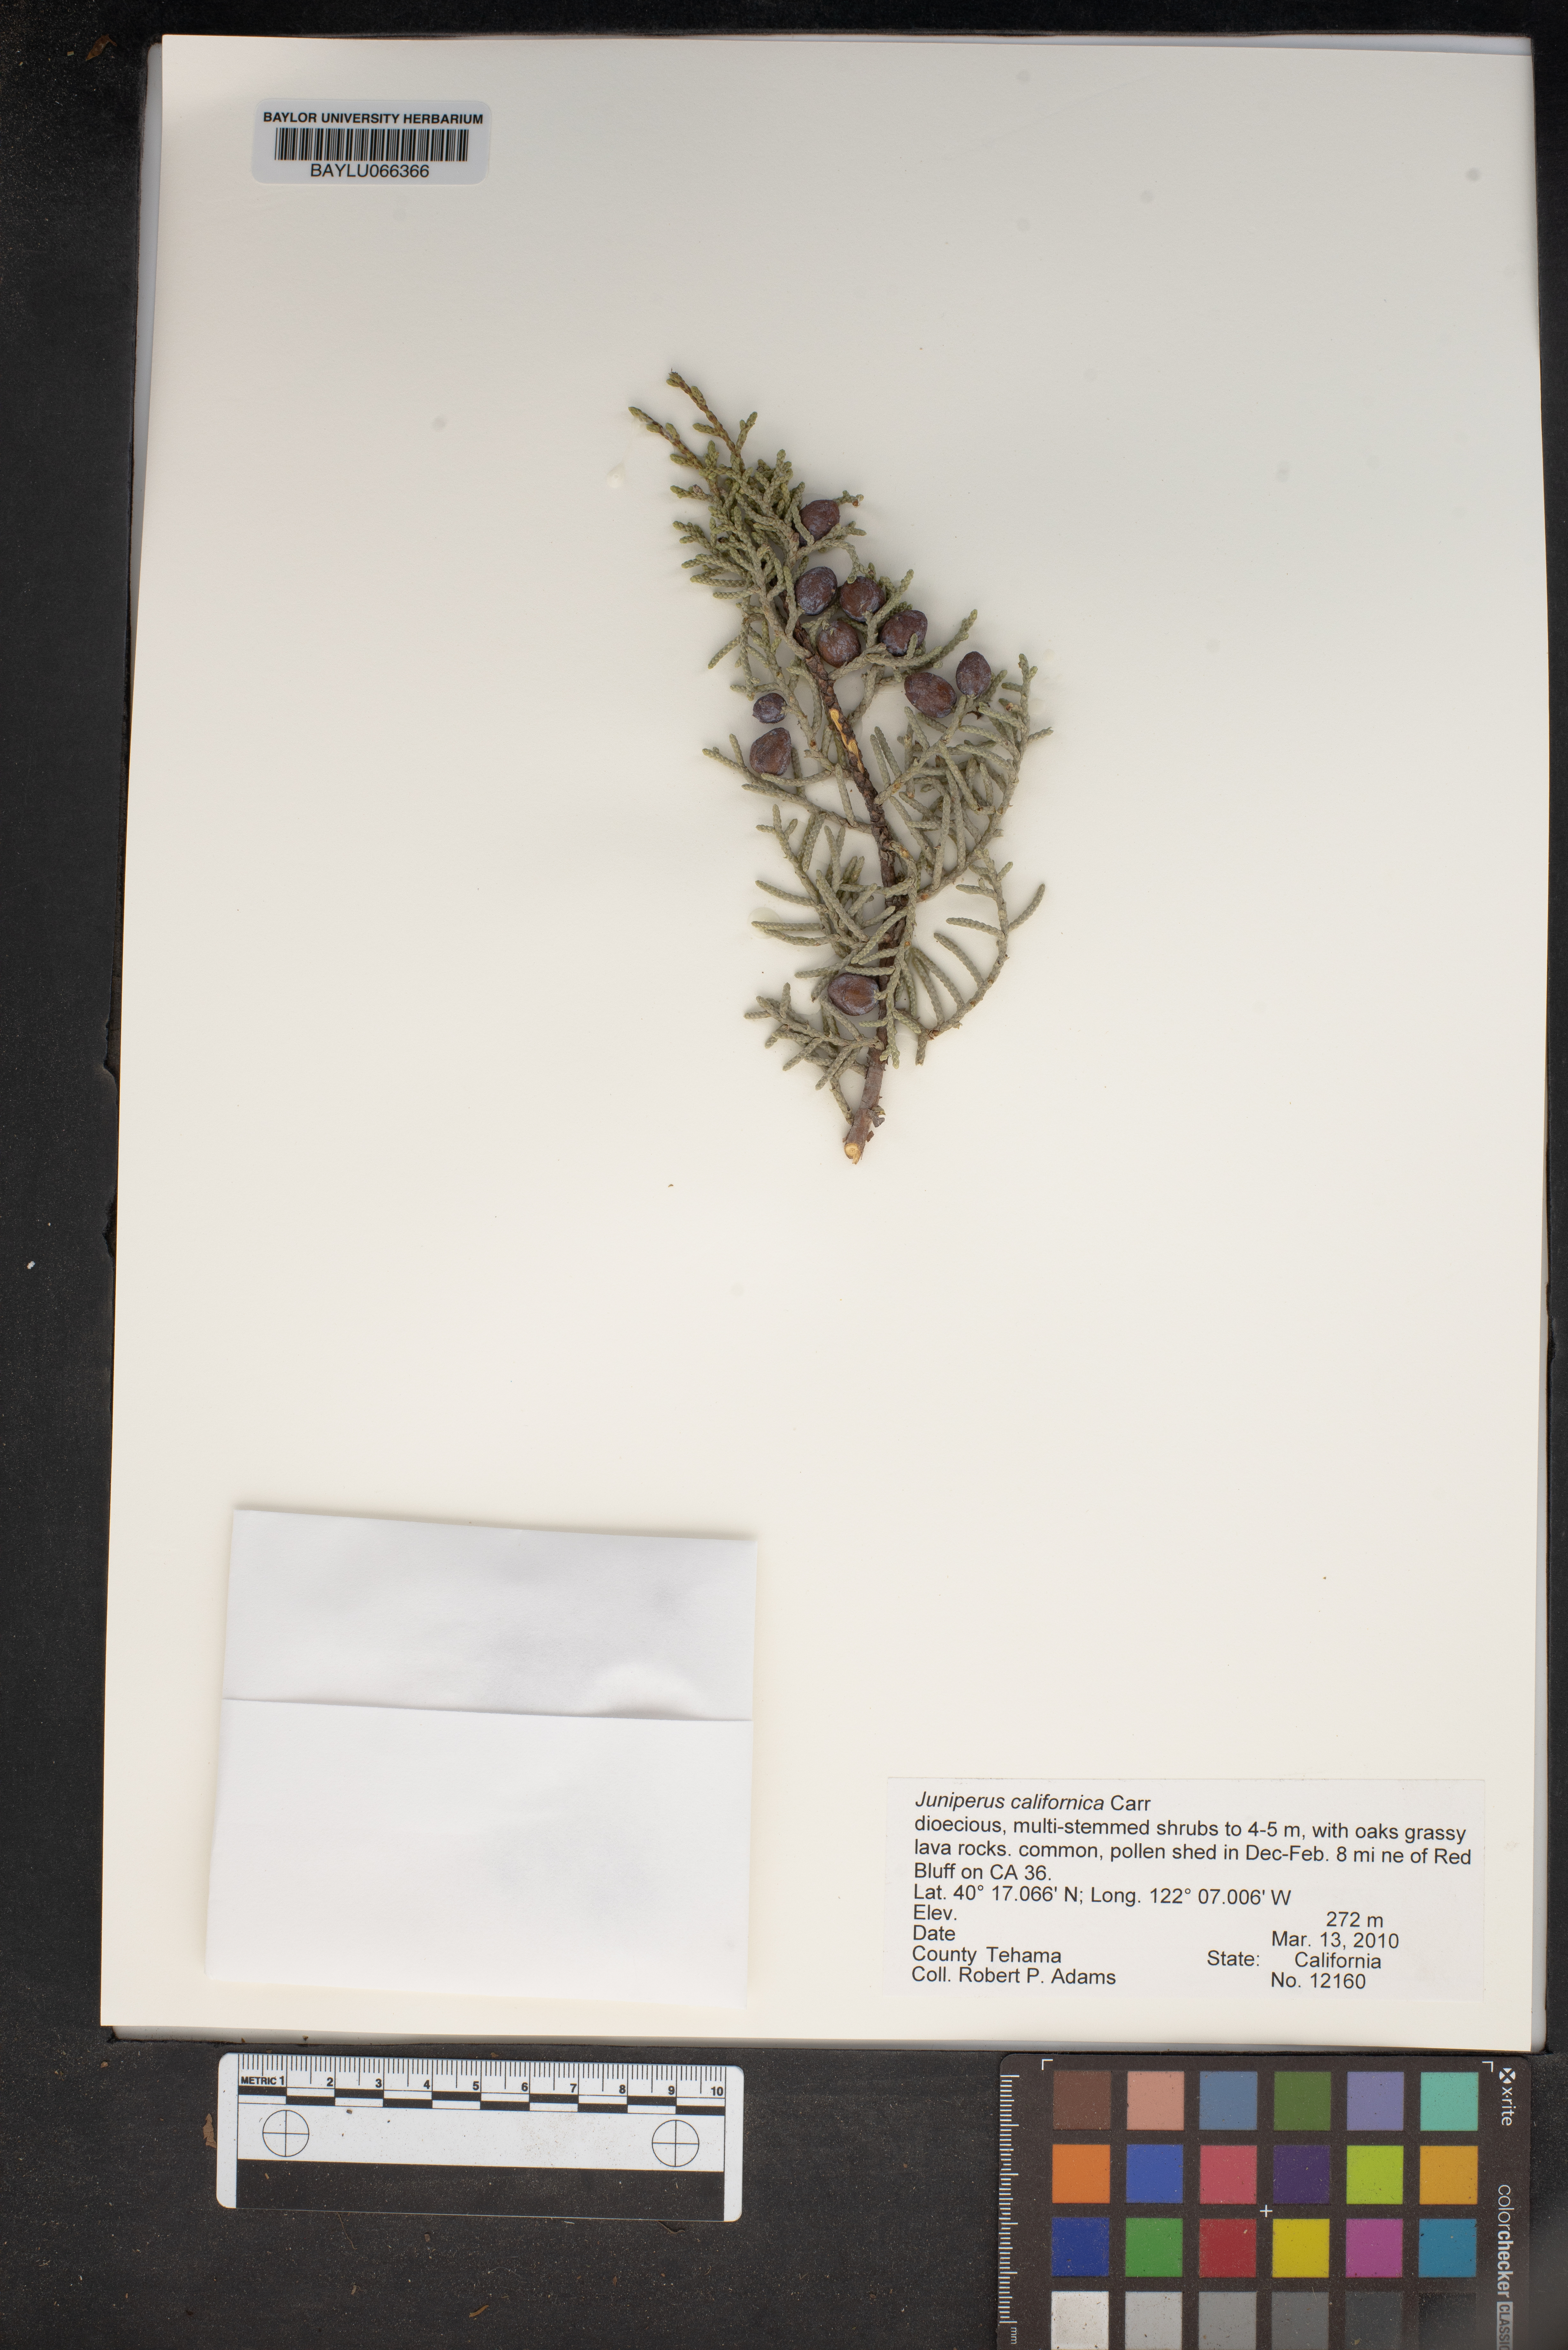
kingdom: Plantae
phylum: Tracheophyta
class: Pinopsida
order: Pinales
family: Cupressaceae
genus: Juniperus
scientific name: Juniperus californica
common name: California juniper
